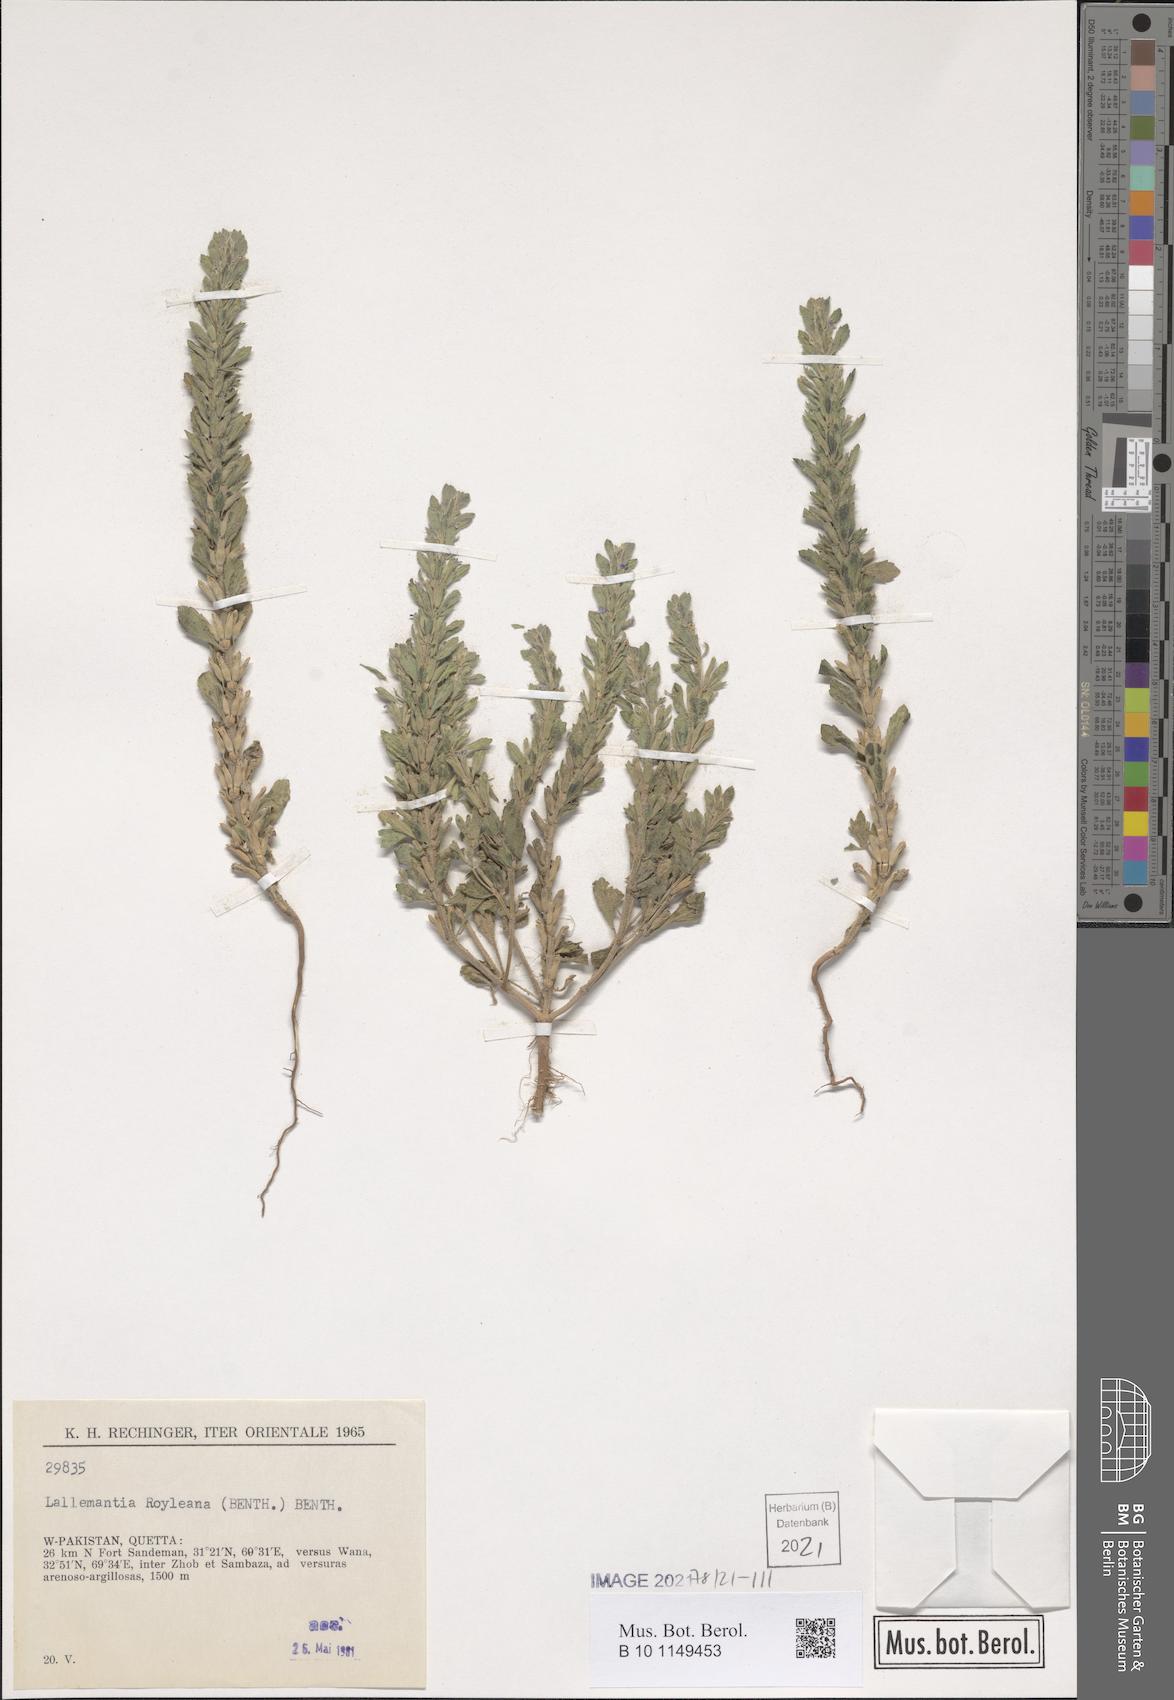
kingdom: Plantae
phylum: Tracheophyta
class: Magnoliopsida
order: Lamiales
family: Lamiaceae
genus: Lallemantia
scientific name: Lallemantia royleana
